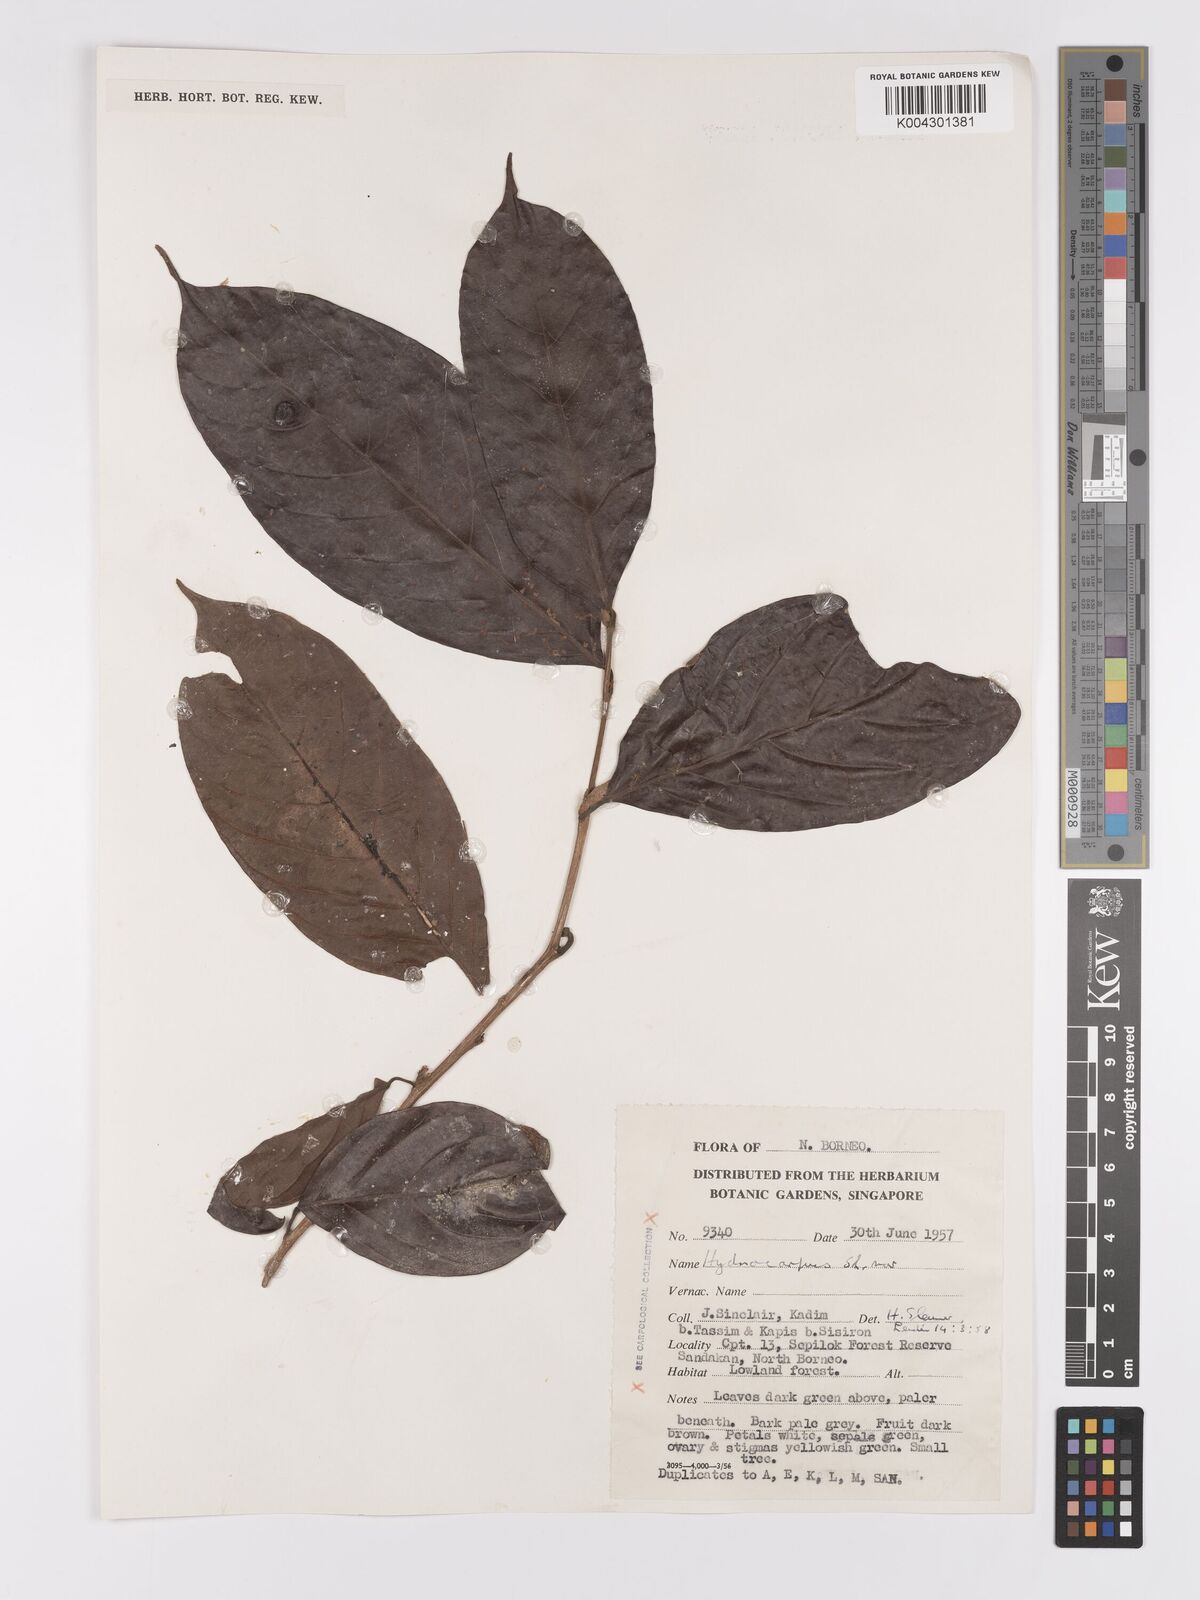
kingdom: Plantae
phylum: Tracheophyta
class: Magnoliopsida
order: Malpighiales
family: Achariaceae
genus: Hydnocarpus
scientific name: Hydnocarpus
